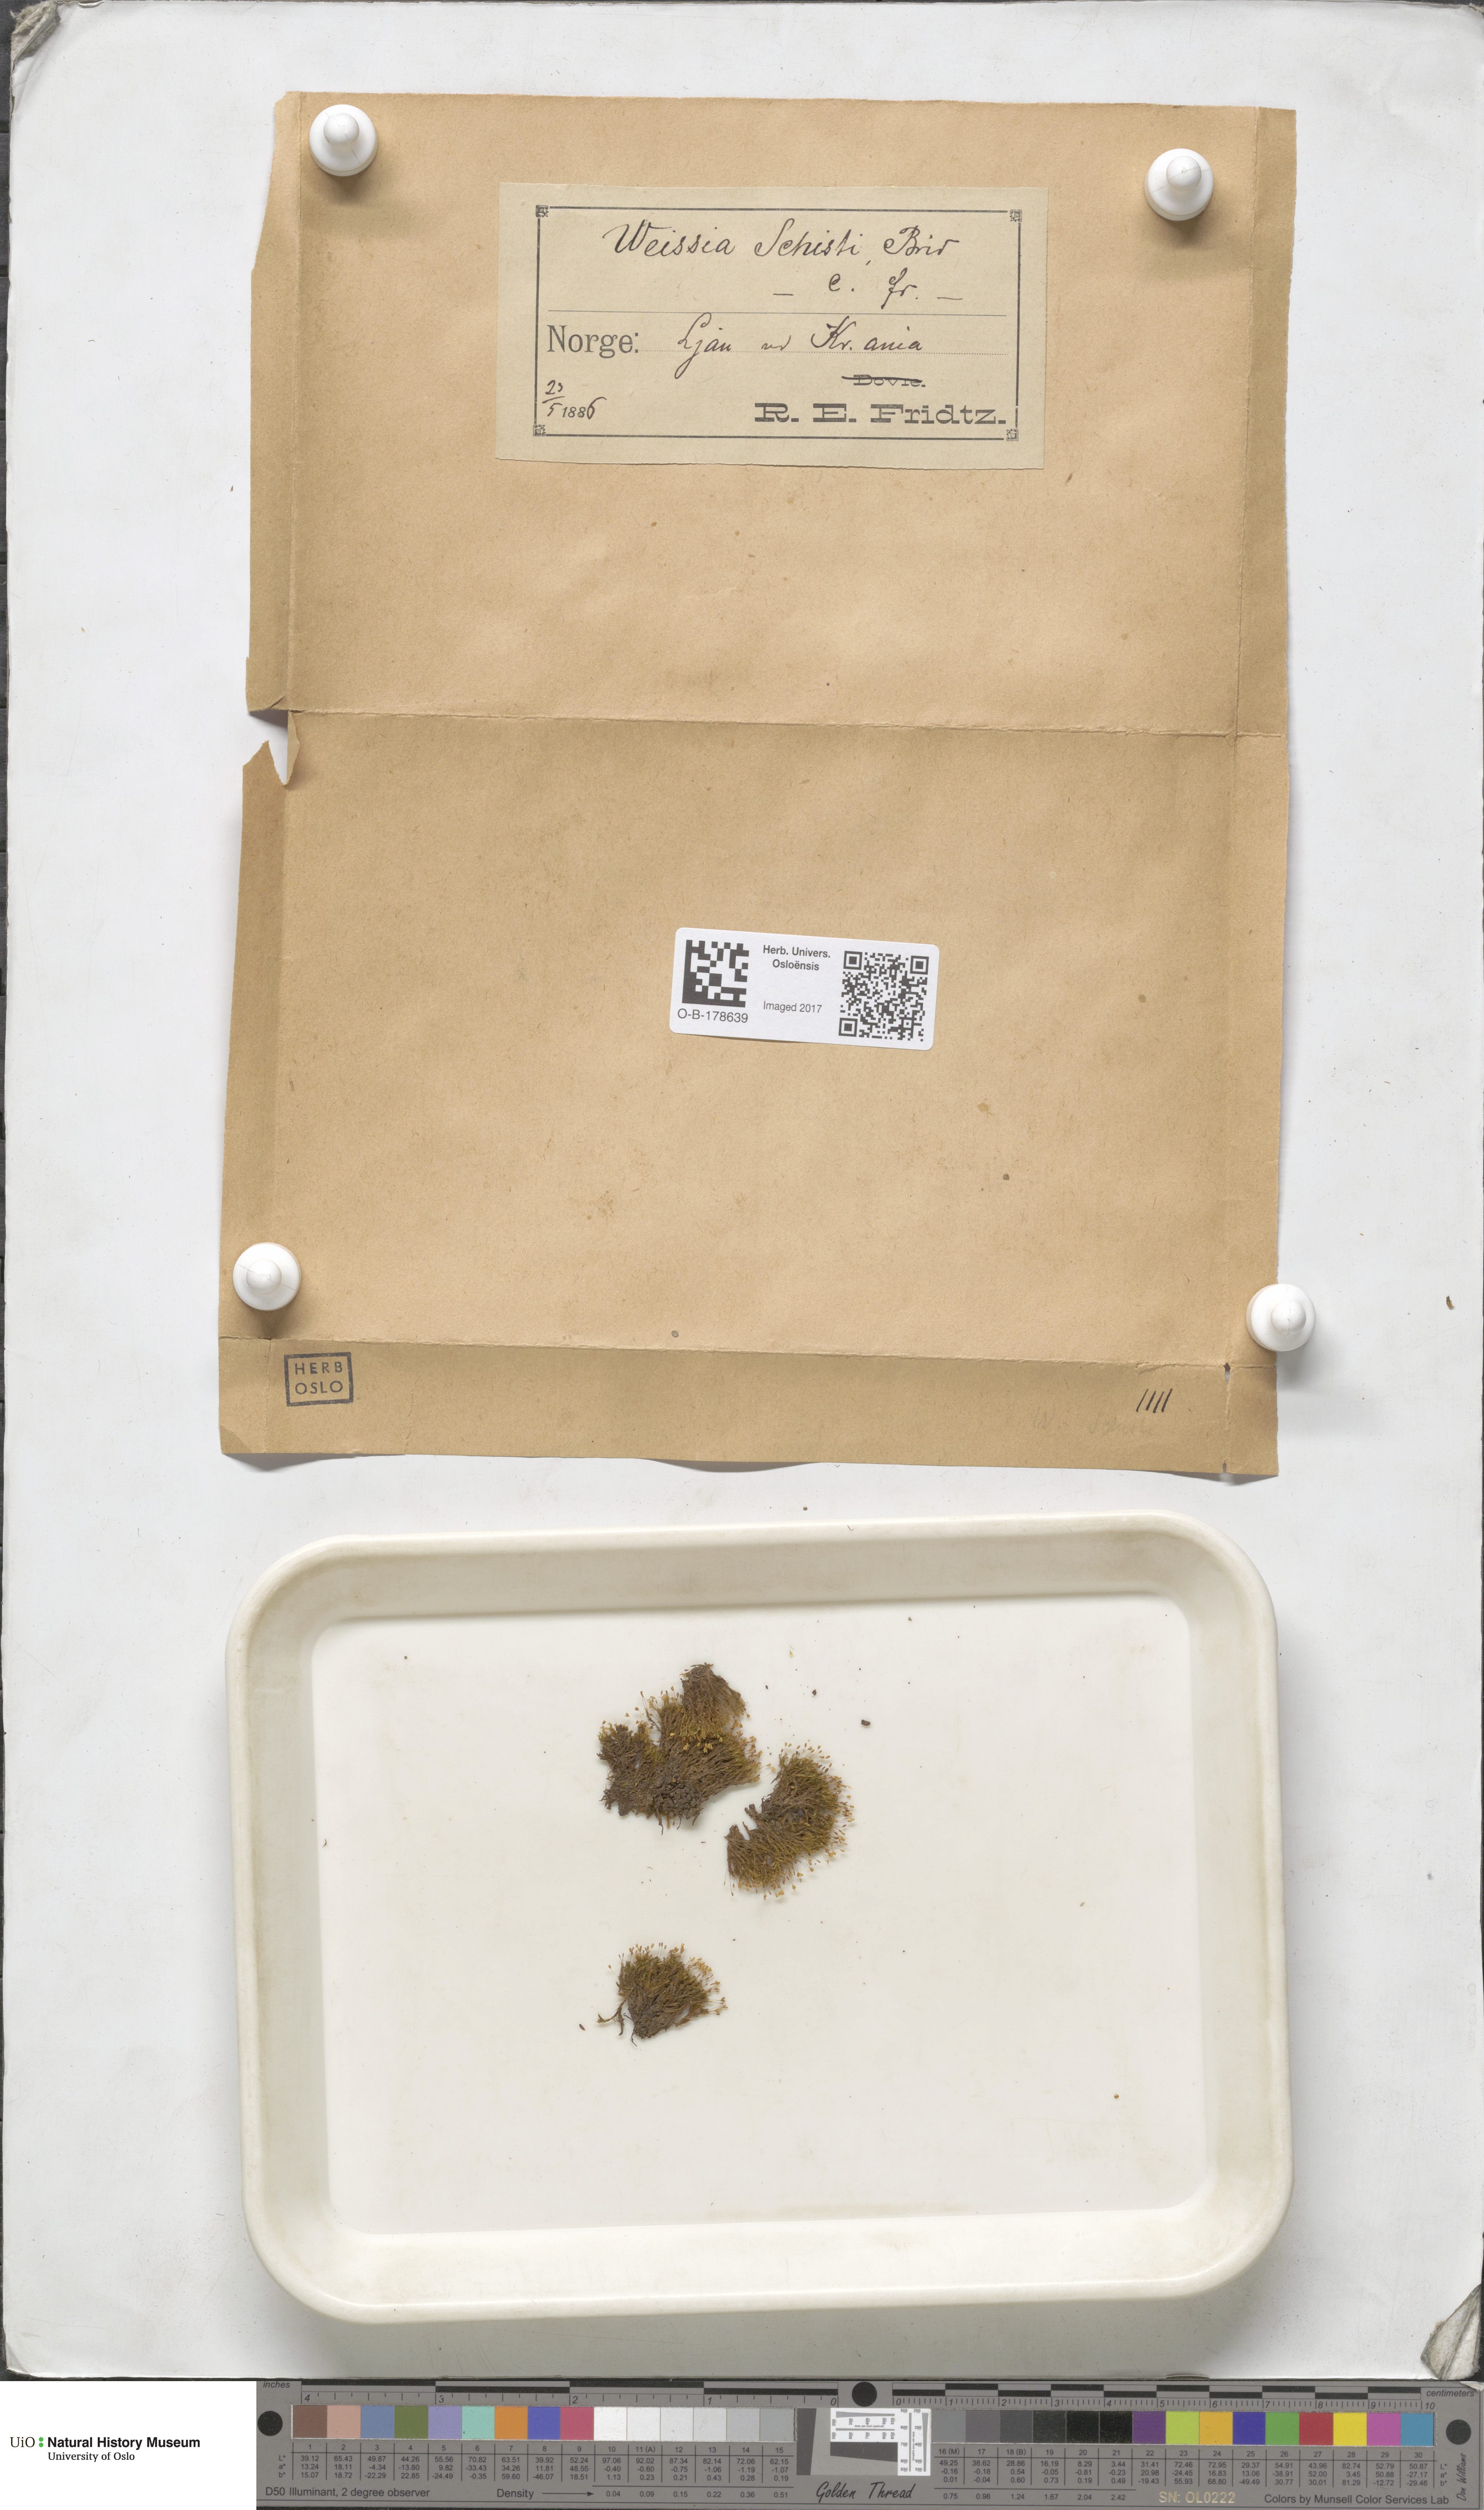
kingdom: Plantae
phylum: Bryophyta
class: Bryopsida
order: Dicranales
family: Rhabdoweisiaceae
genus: Cnestrum
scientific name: Cnestrum schisti
